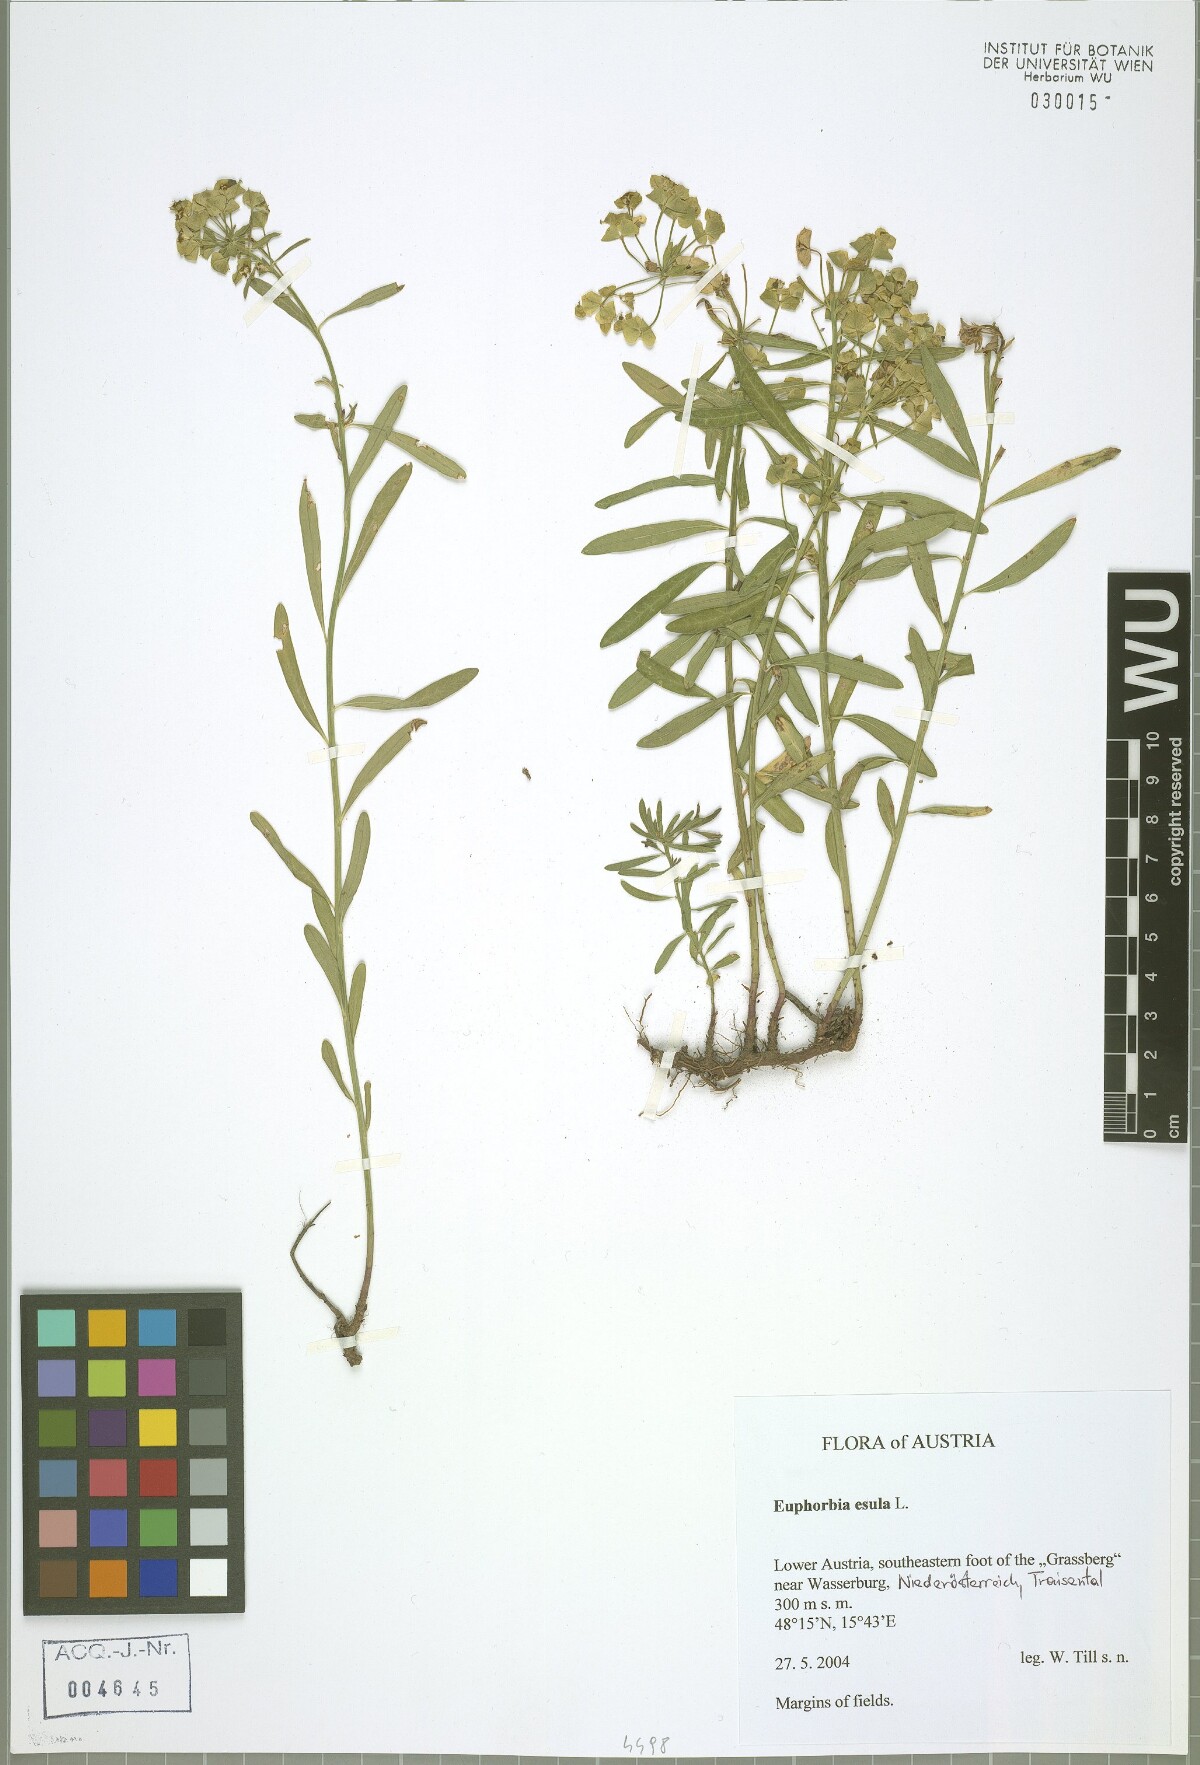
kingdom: Plantae
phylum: Tracheophyta
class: Magnoliopsida
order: Malpighiales
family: Euphorbiaceae
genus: Euphorbia
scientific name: Euphorbia esula
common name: Leafy spurge
